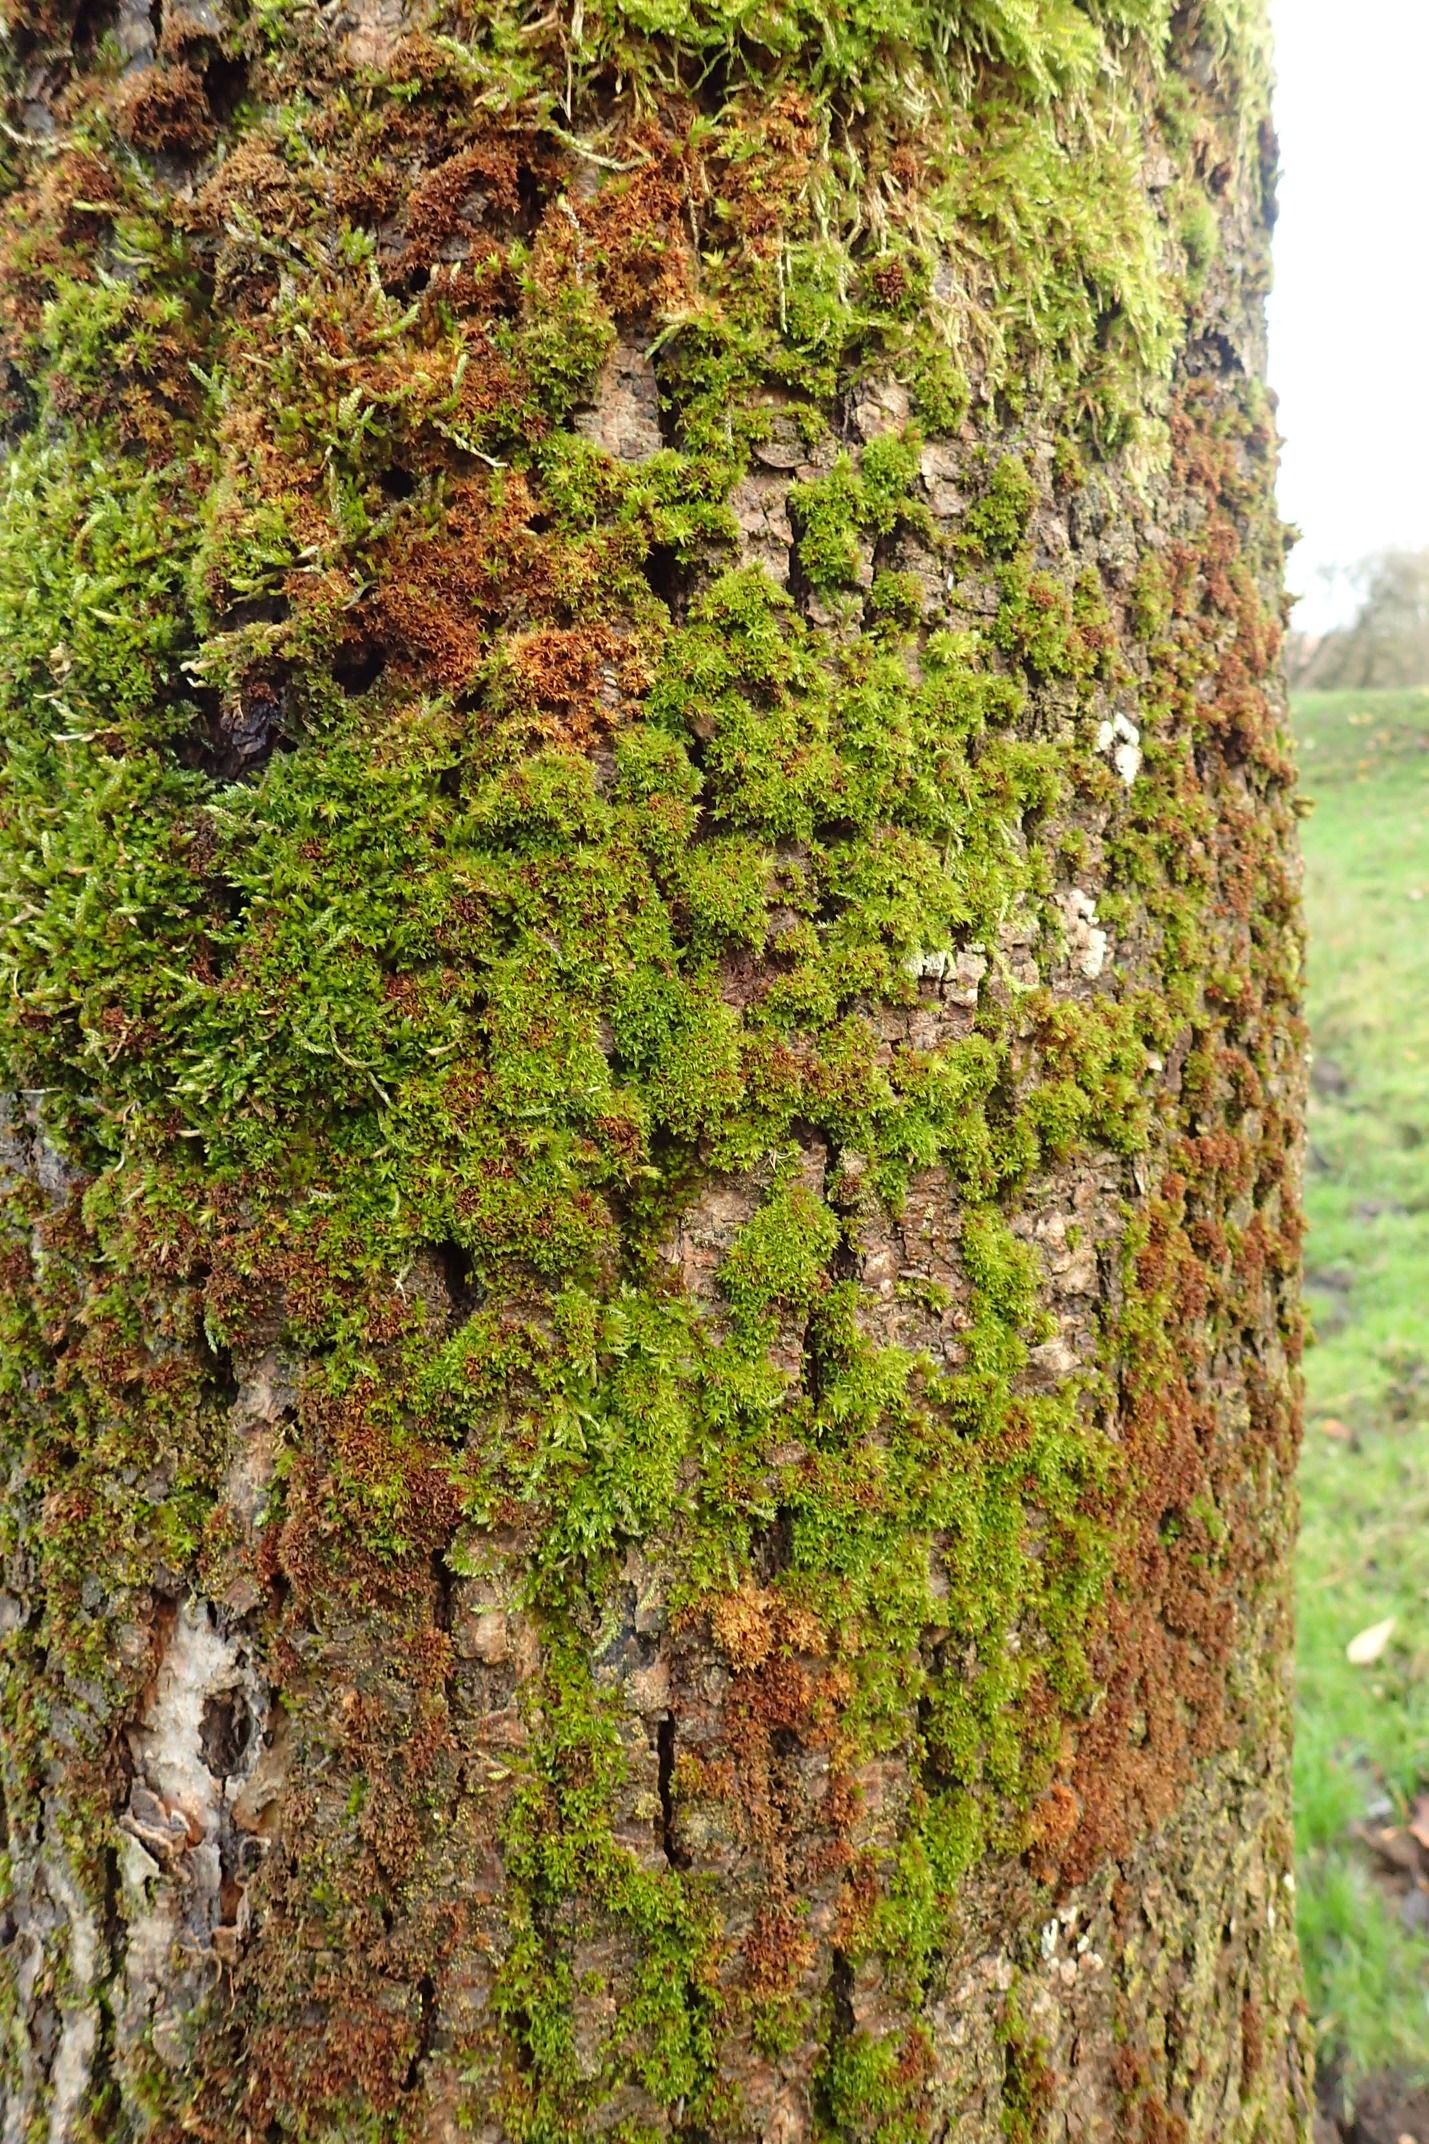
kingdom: Plantae
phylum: Bryophyta
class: Bryopsida
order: Pottiales
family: Pottiaceae
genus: Syntrichia
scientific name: Syntrichia papillosa
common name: Bark-hårstjerne
